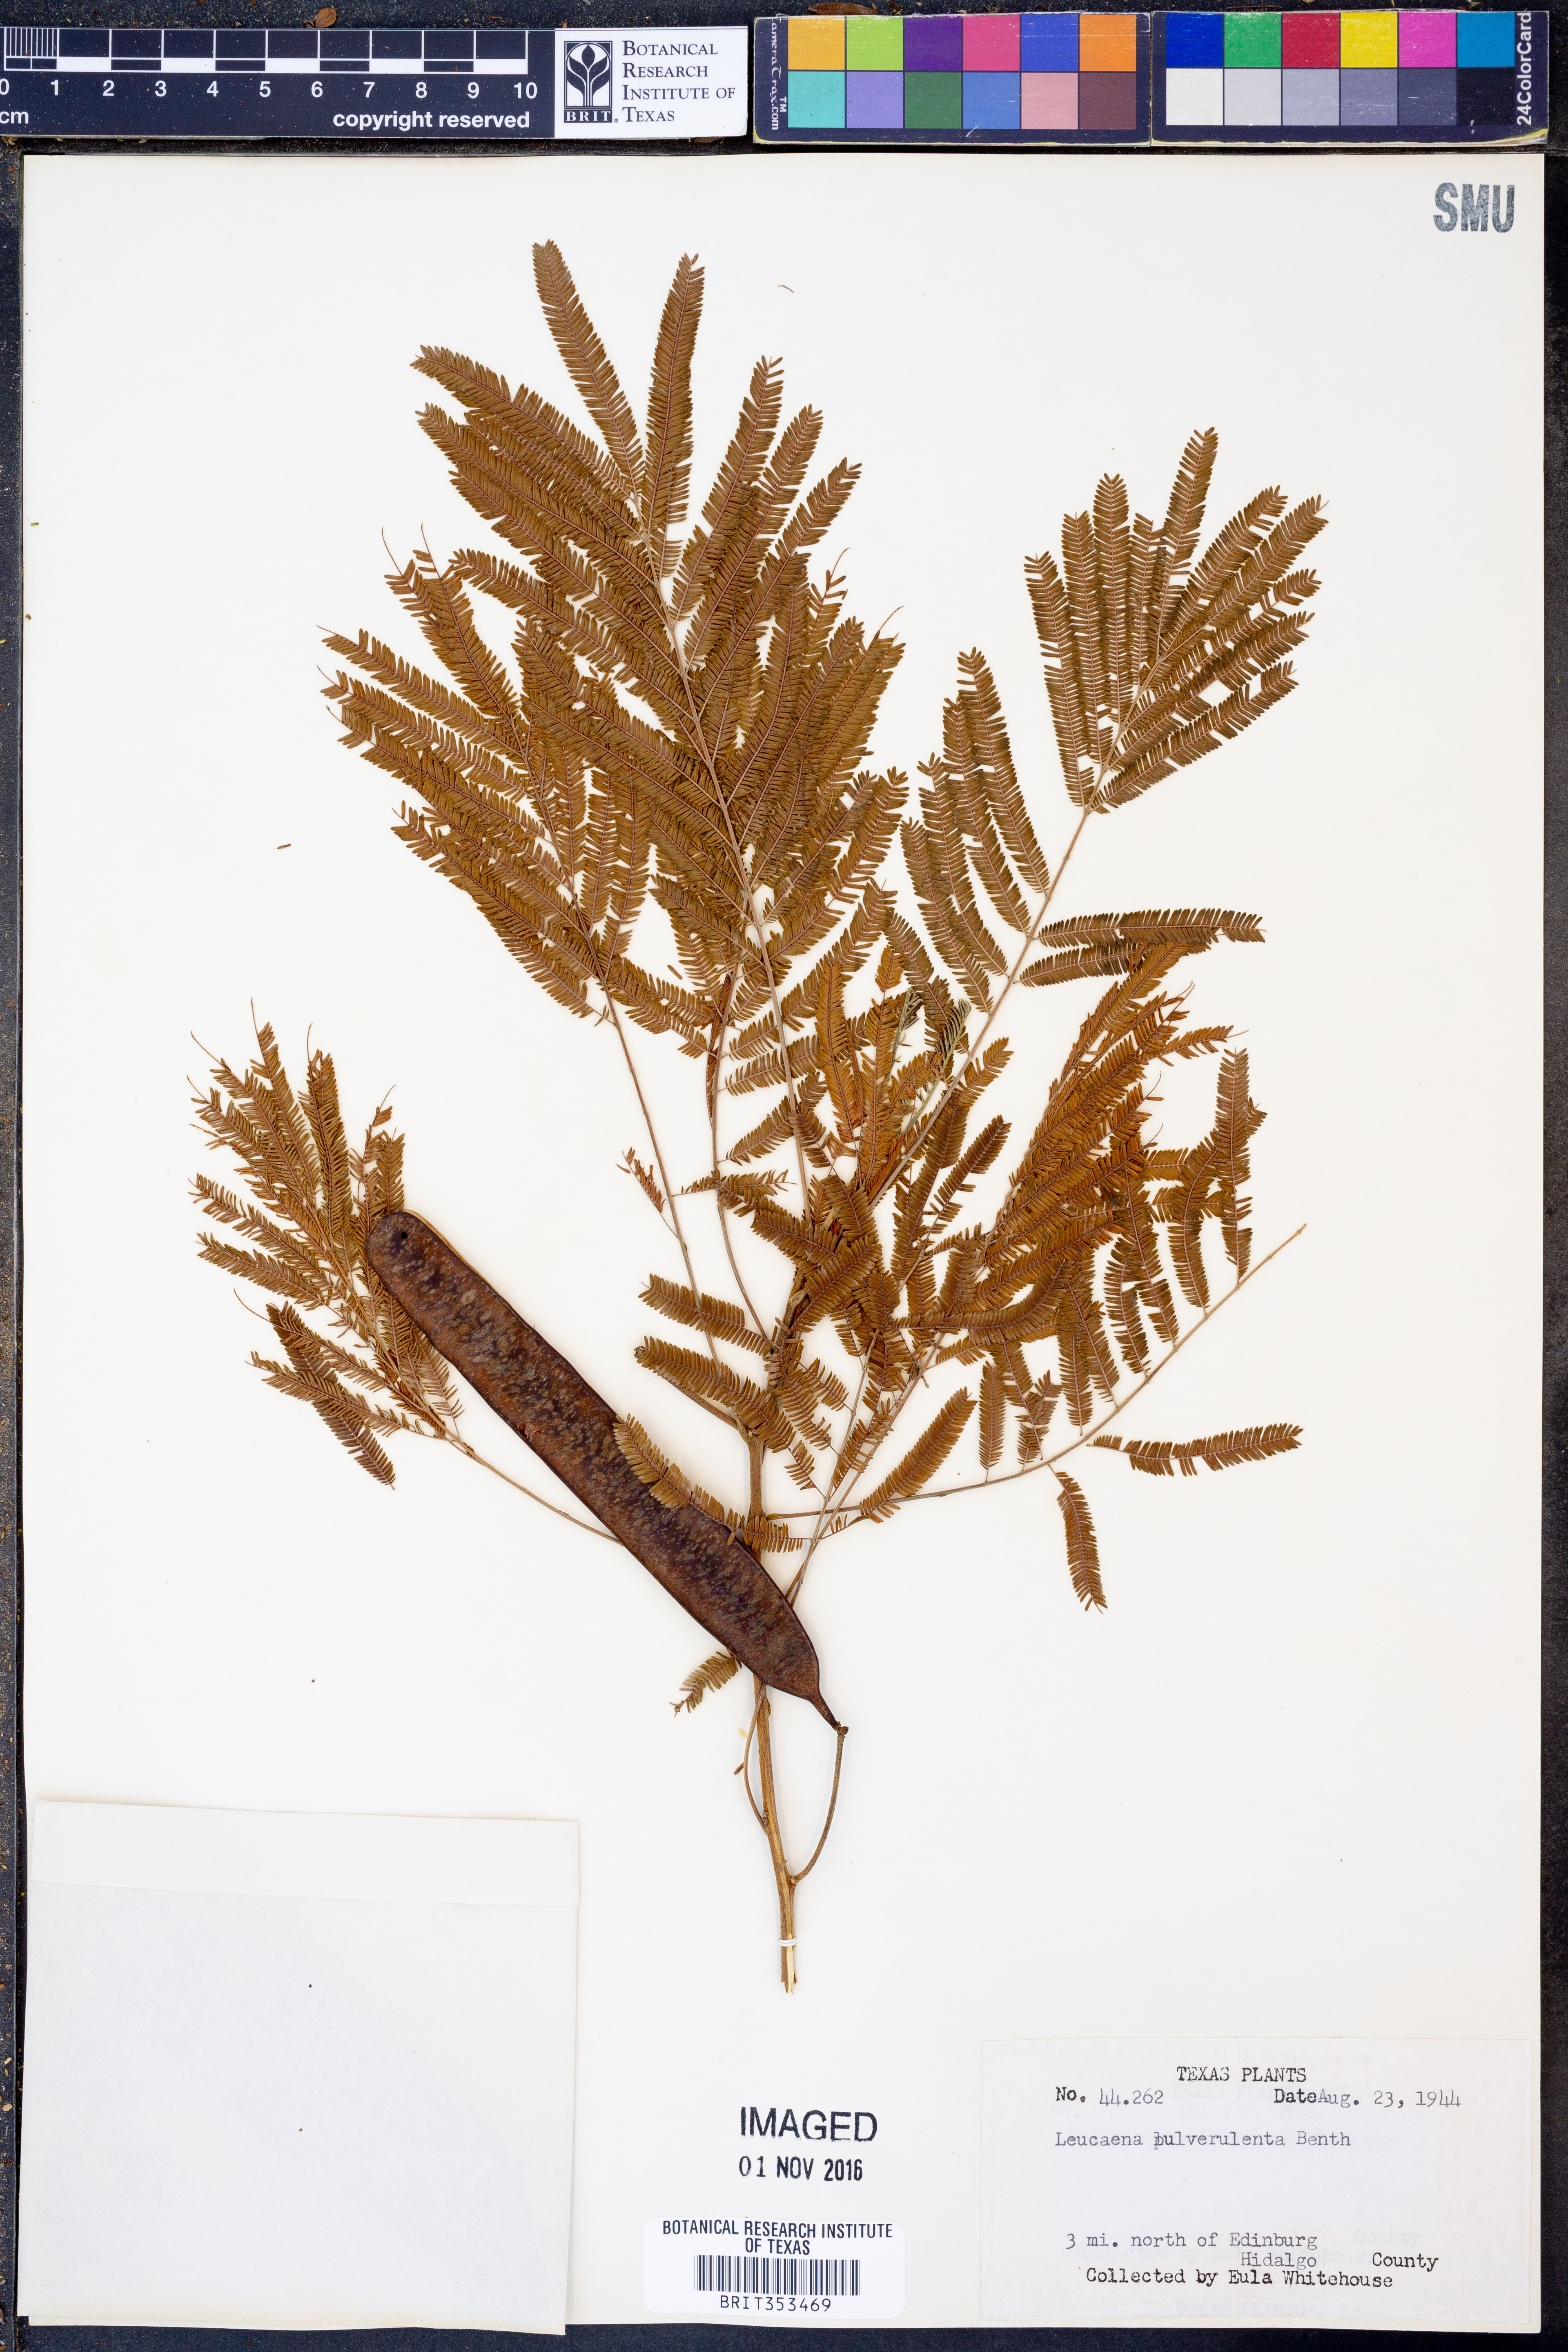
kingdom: Plantae
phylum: Tracheophyta
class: Magnoliopsida
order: Fabales
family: Fabaceae
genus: Leucaena
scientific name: Leucaena pulverulenta
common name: Great leadtree
